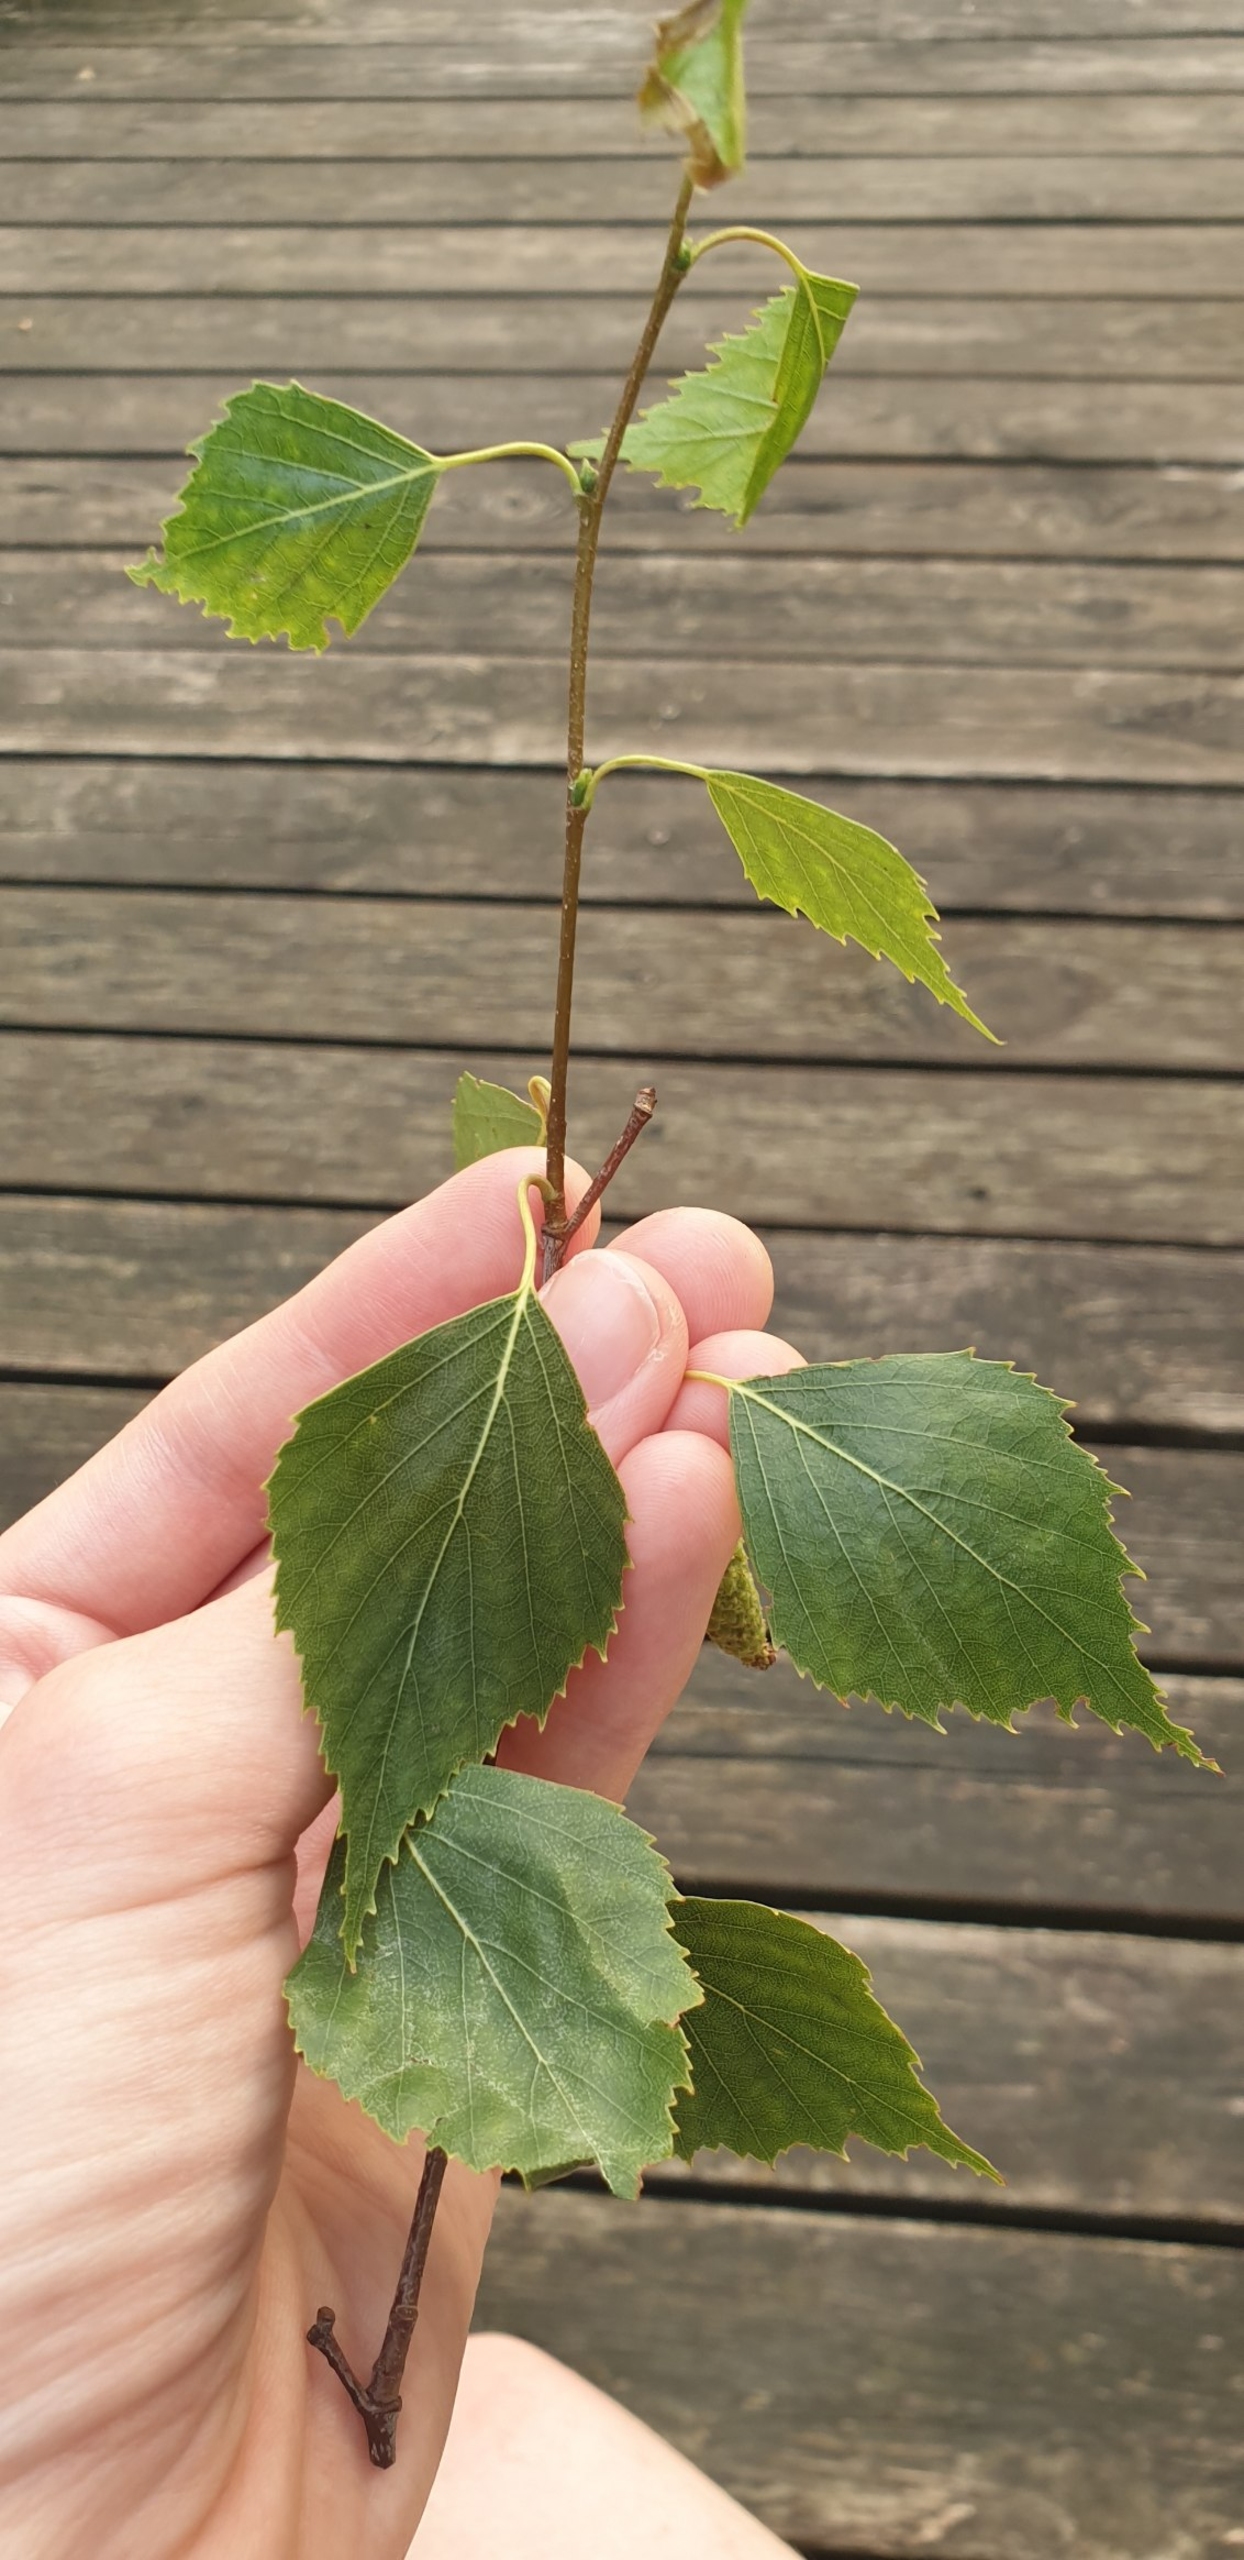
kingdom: Plantae
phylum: Tracheophyta
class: Magnoliopsida
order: Fagales
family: Betulaceae
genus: Betula
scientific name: Betula pendula
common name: Vorte-birk
